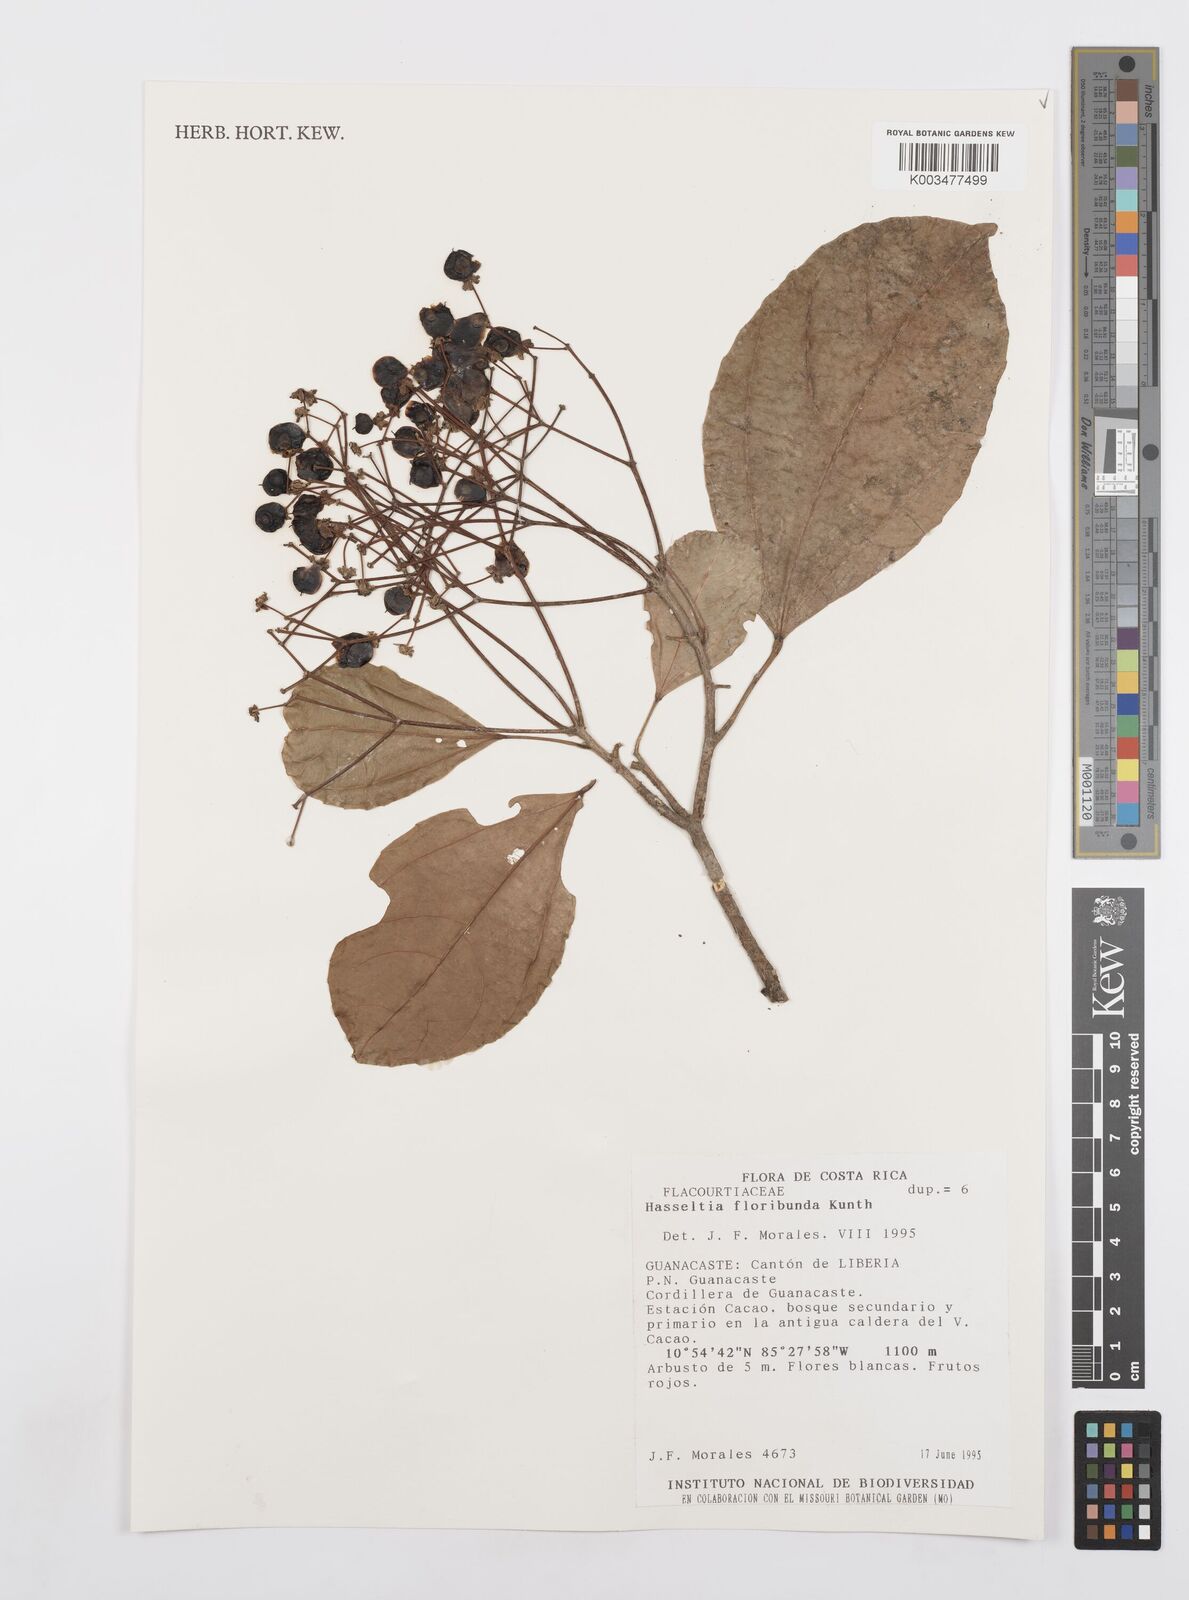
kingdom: Plantae
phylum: Tracheophyta
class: Magnoliopsida
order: Malpighiales
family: Salicaceae
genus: Hasseltia
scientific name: Hasseltia floribunda
